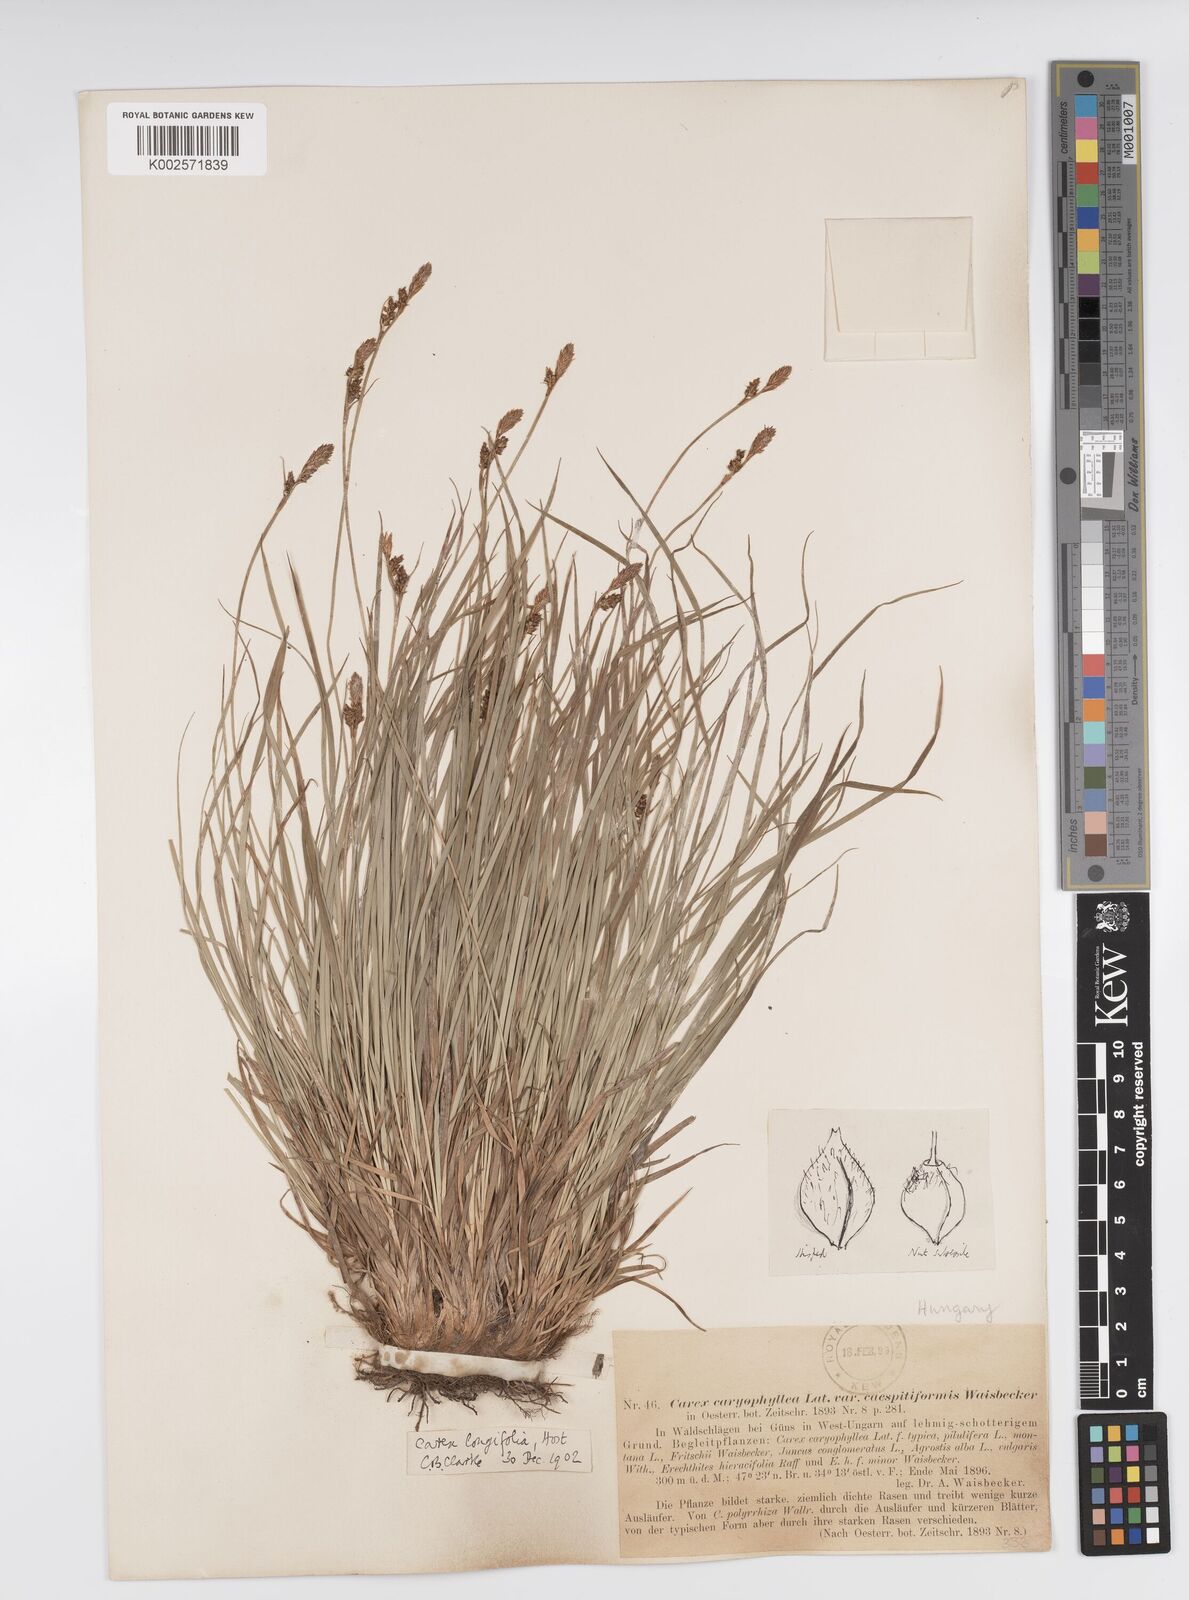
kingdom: Plantae
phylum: Tracheophyta
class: Liliopsida
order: Poales
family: Cyperaceae
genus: Carex
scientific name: Carex umbrosa
